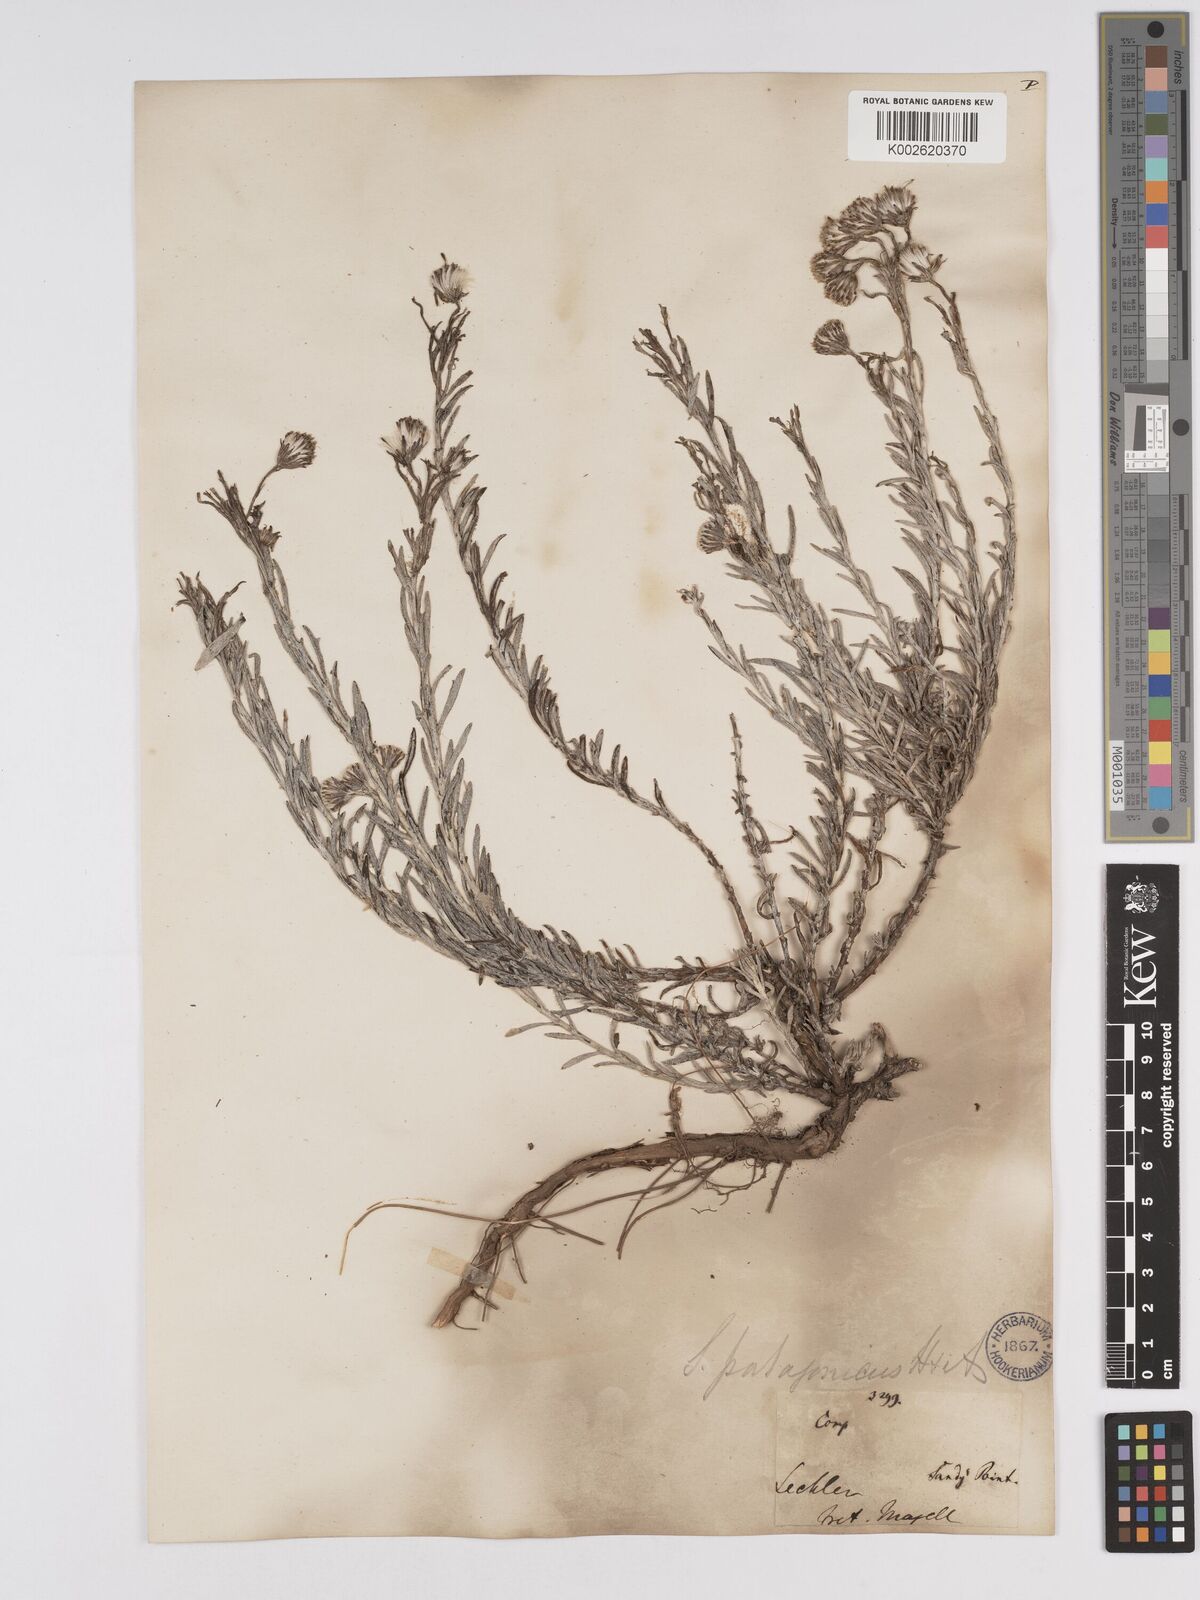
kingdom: Plantae
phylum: Tracheophyta
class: Magnoliopsida
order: Asterales
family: Asteraceae
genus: Senecio
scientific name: Senecio patagonicus
